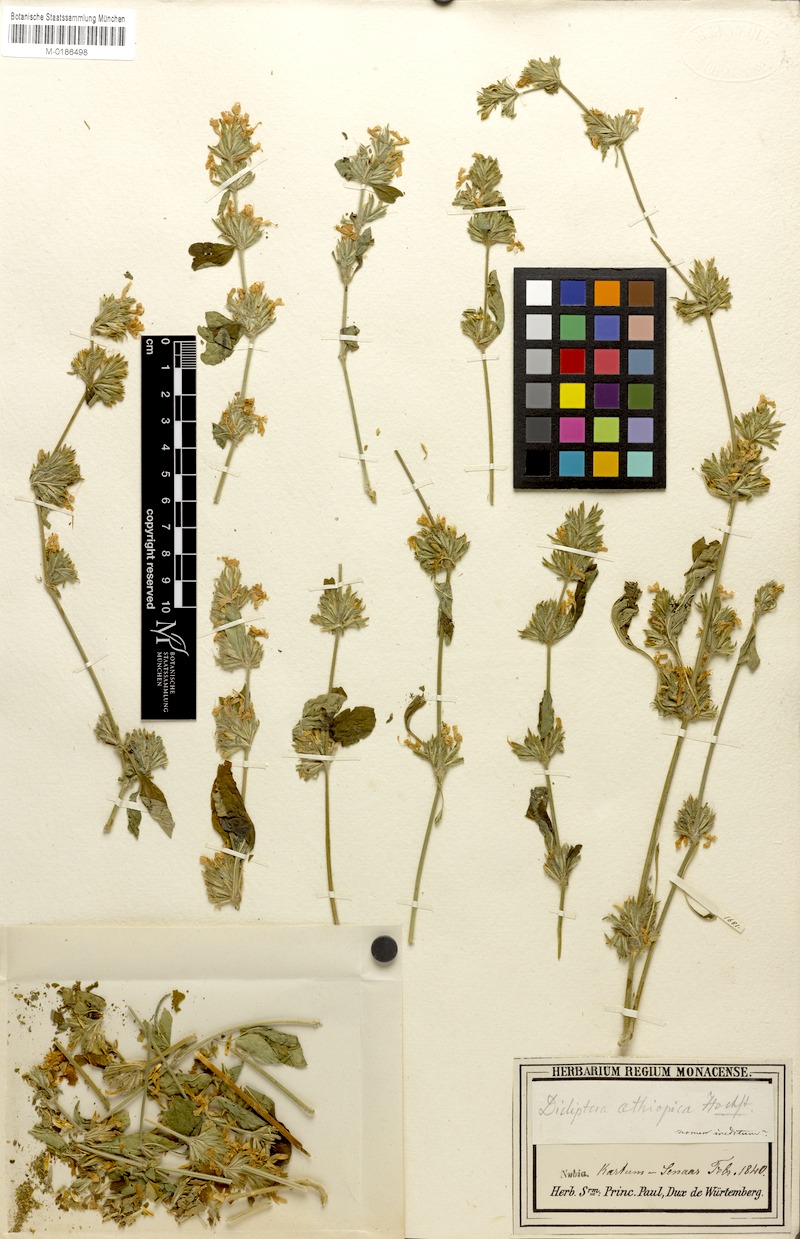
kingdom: Plantae
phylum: Tracheophyta
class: Magnoliopsida
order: Lamiales
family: Acanthaceae
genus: Hypoestes
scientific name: Hypoestes forskaolii
